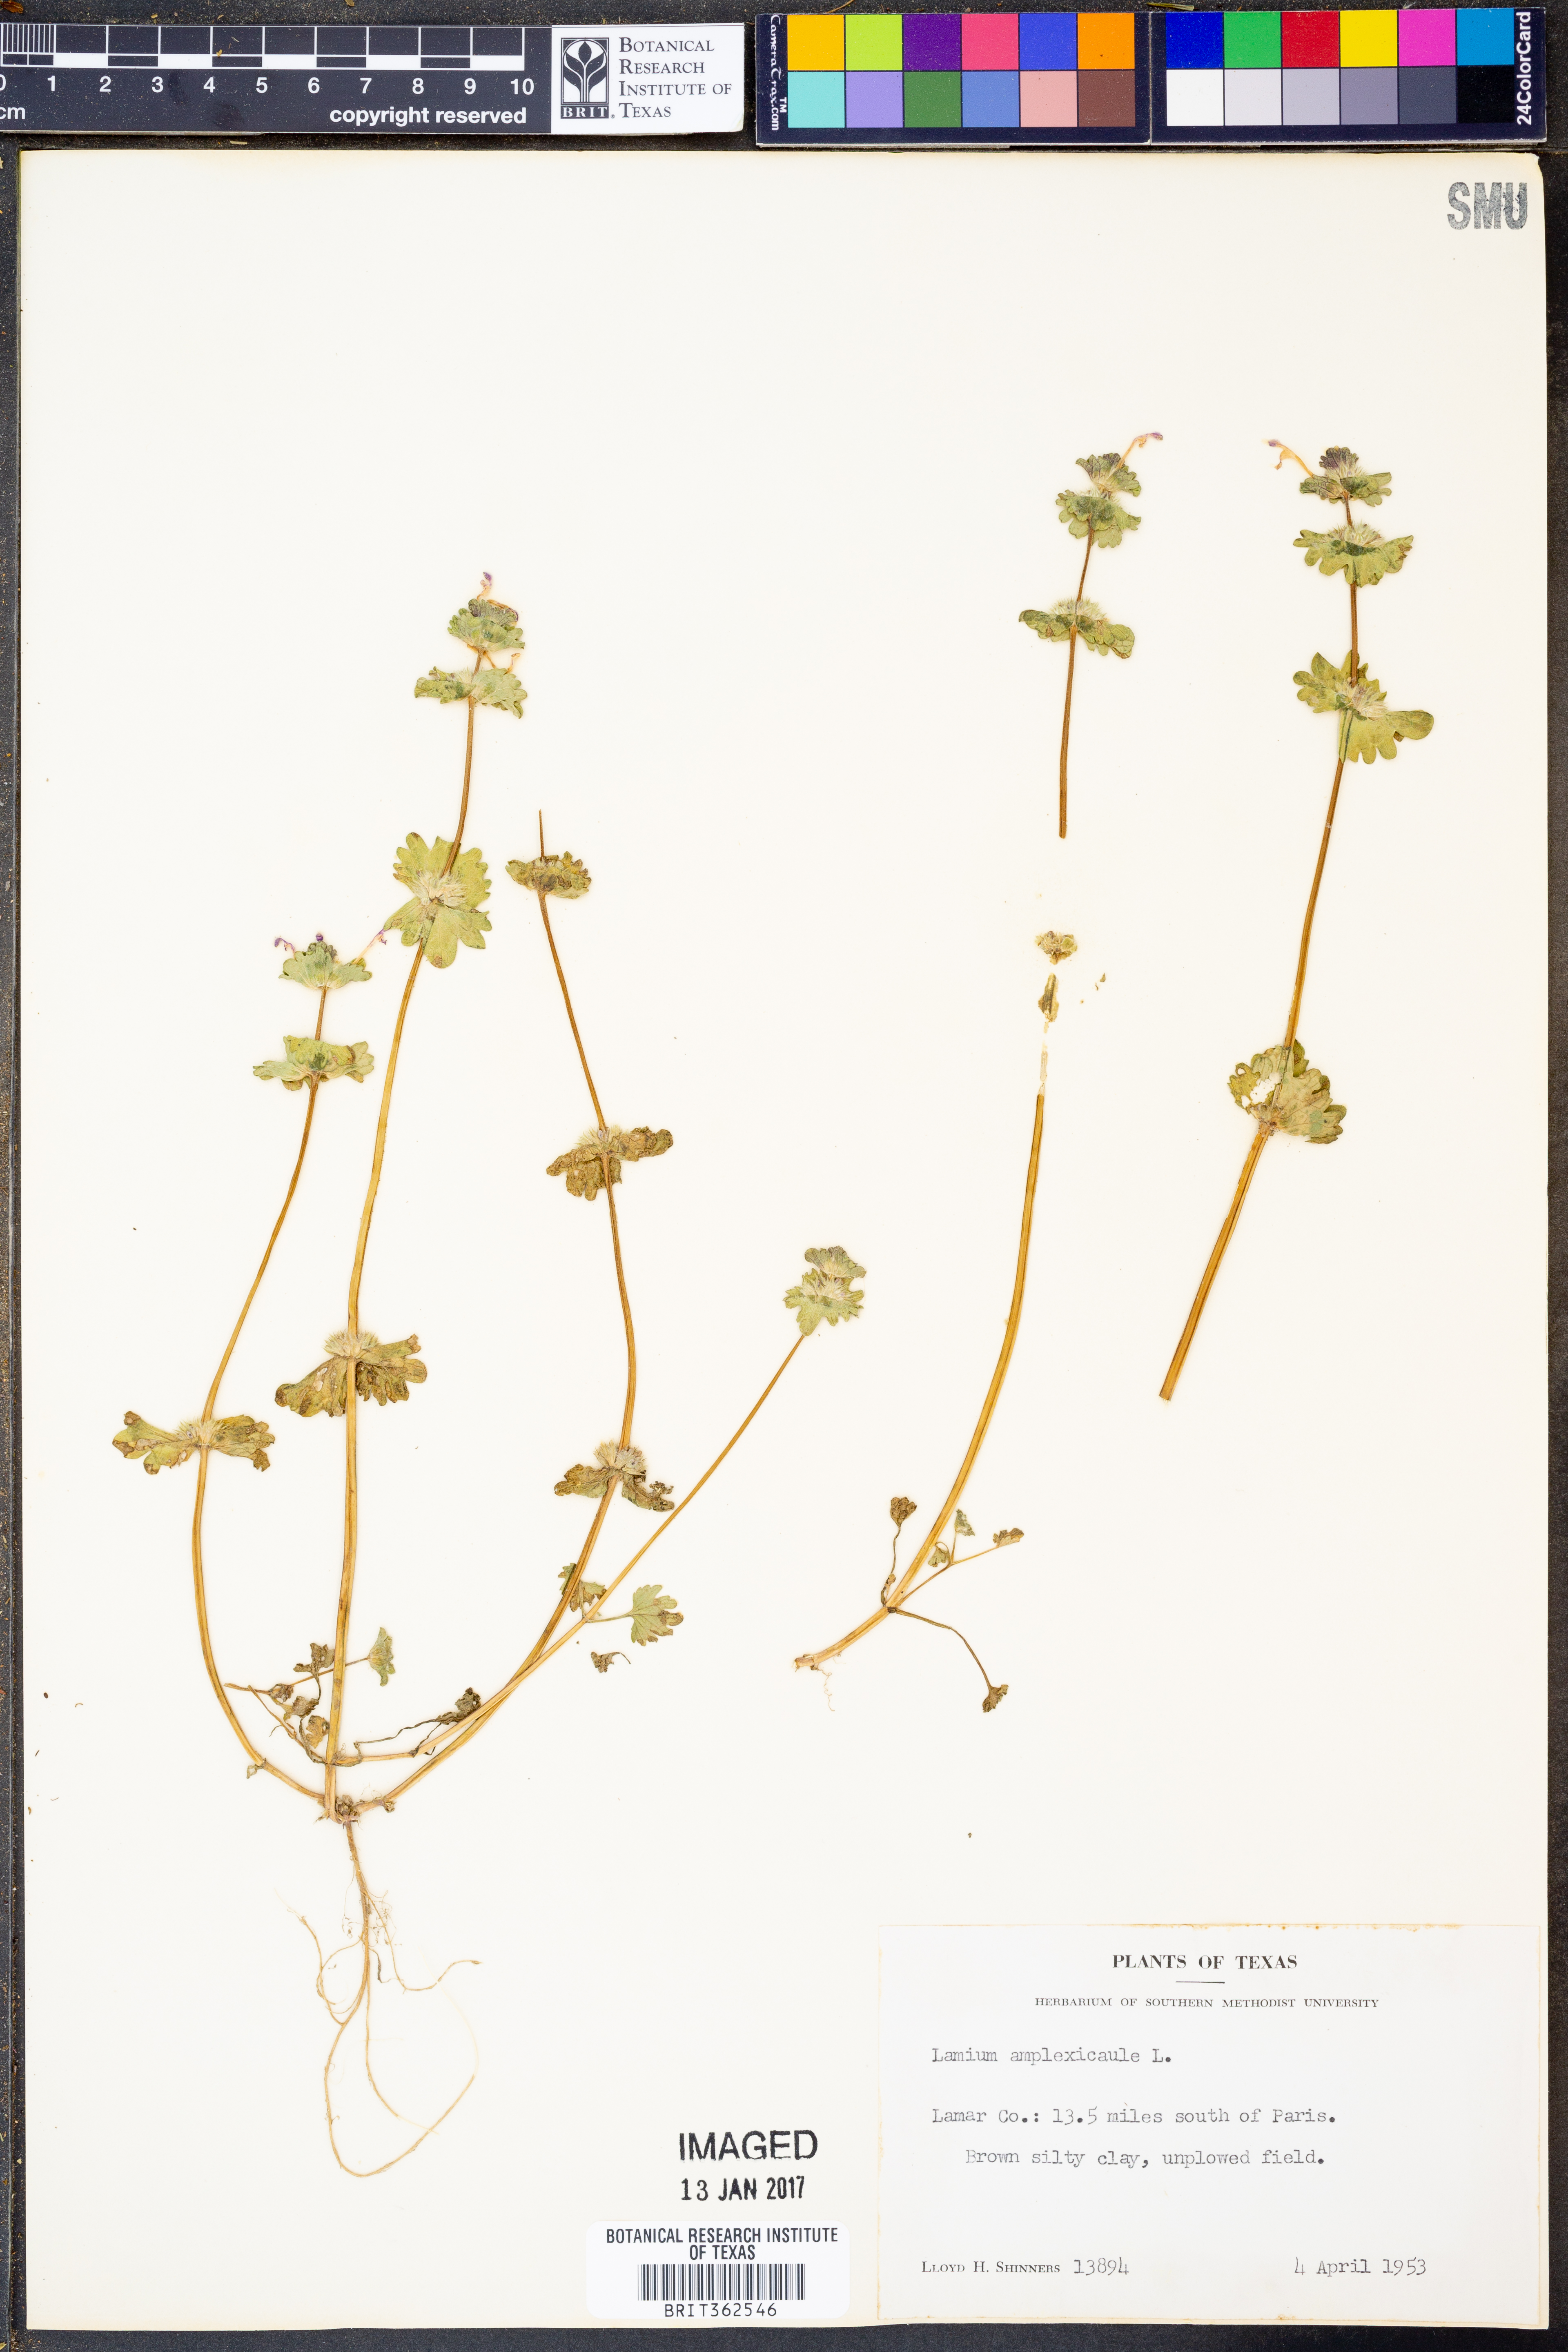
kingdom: Plantae
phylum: Tracheophyta
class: Magnoliopsida
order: Lamiales
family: Lamiaceae
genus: Lamium
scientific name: Lamium amplexicaule
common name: Henbit dead-nettle
